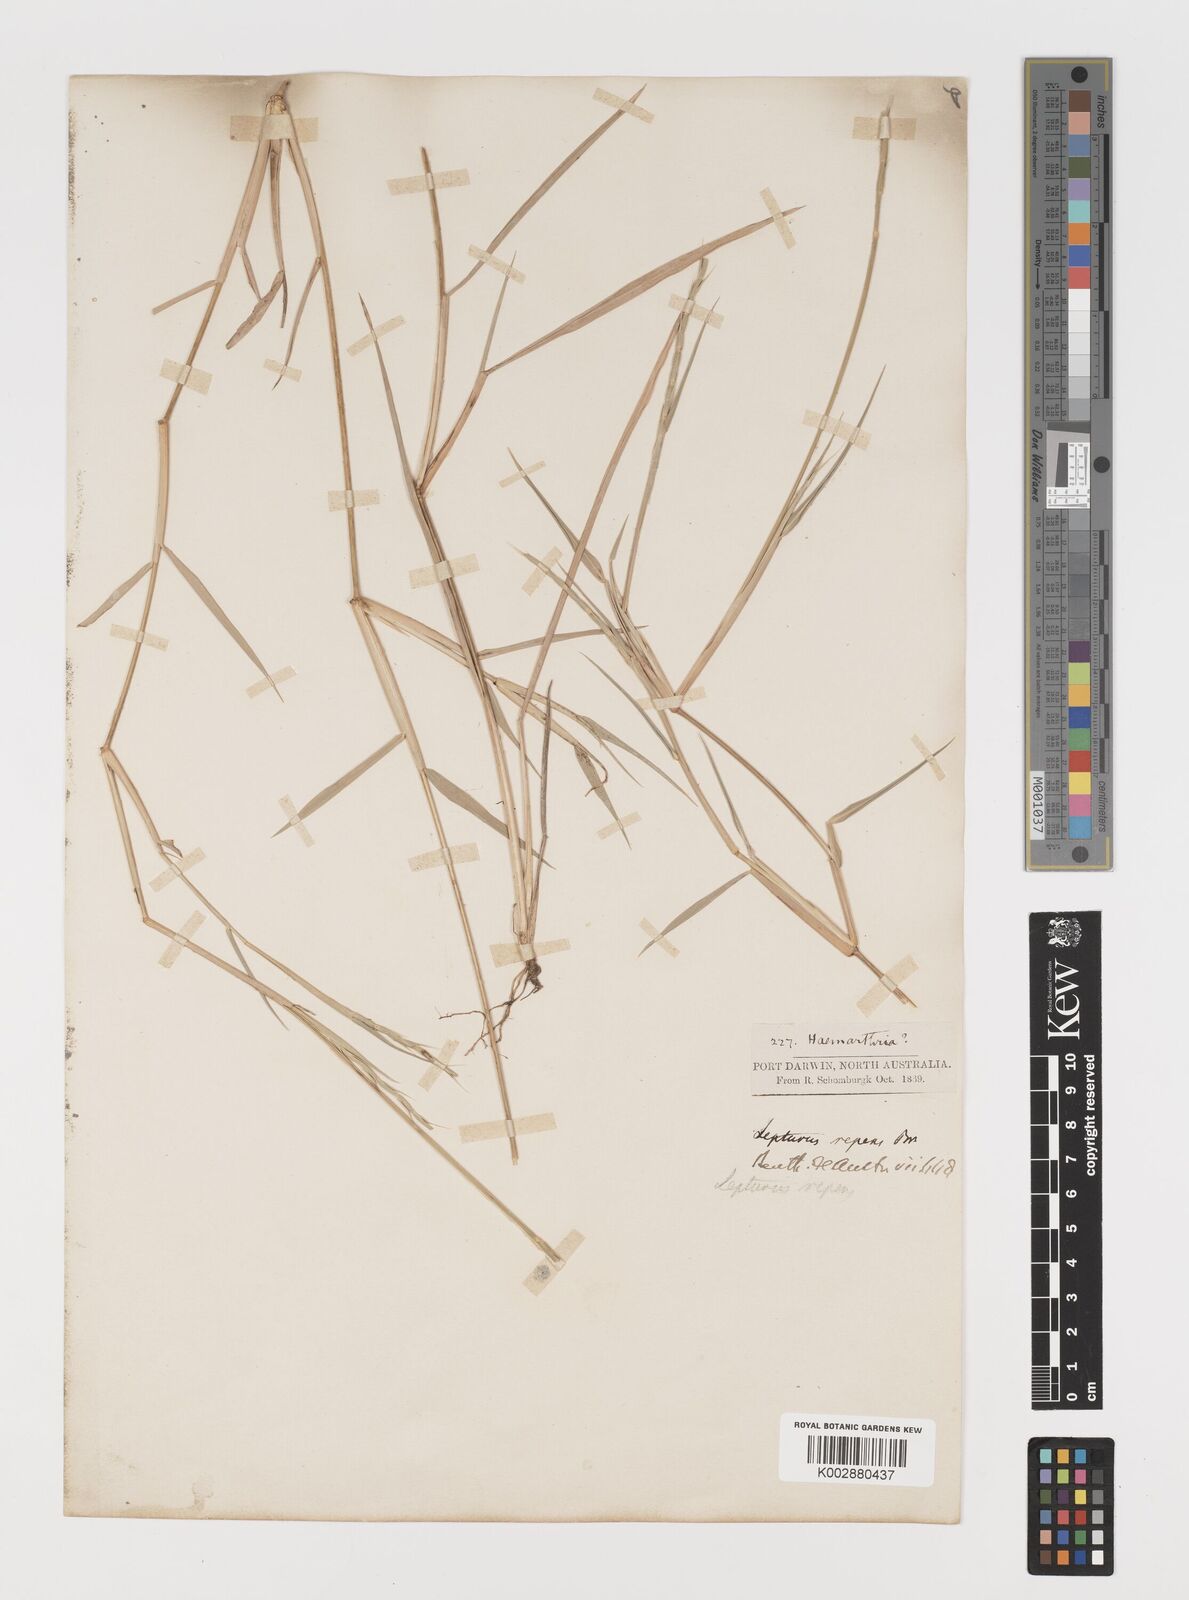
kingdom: Plantae
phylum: Tracheophyta
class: Liliopsida
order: Poales
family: Poaceae
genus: Lepturus
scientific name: Lepturus repens
